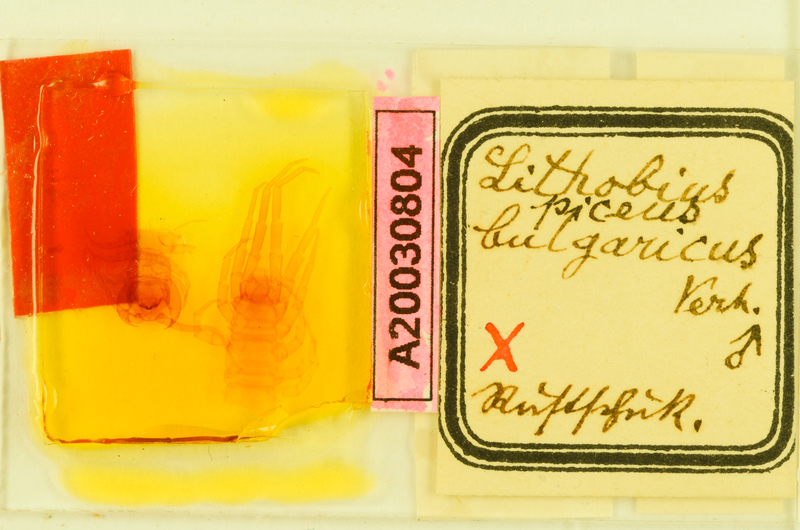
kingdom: Animalia
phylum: Arthropoda
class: Chilopoda
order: Lithobiomorpha
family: Lithobiidae
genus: Lithobius
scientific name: Lithobius piceus
